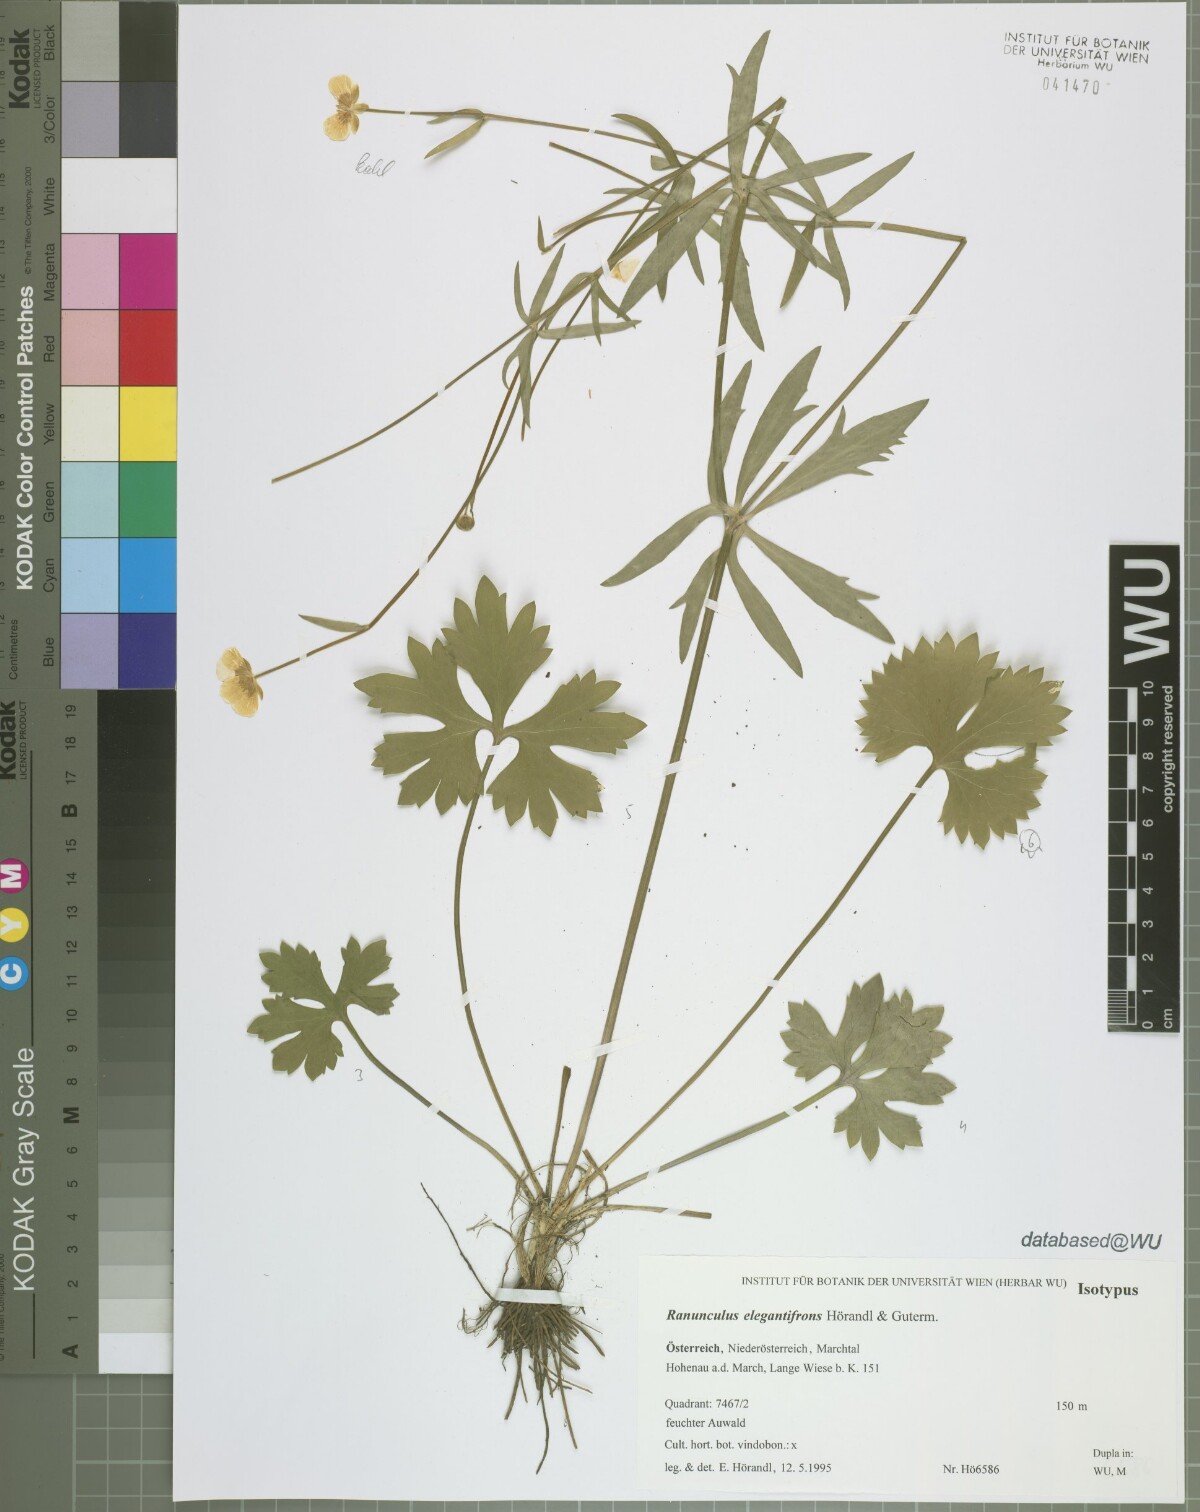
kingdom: Plantae
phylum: Tracheophyta
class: Magnoliopsida
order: Ranunculales
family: Ranunculaceae
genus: Ranunculus
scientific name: Ranunculus elegantifrons
